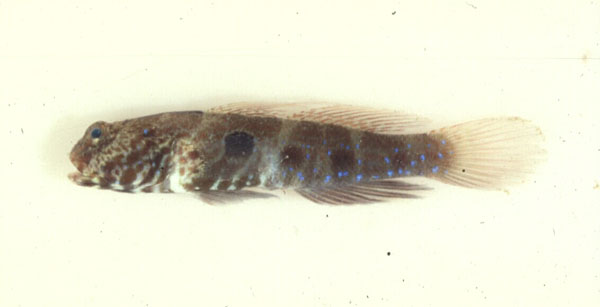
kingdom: Animalia
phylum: Chordata
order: Perciformes
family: Gobiidae
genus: Cryptocentrus
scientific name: Cryptocentrus strigilliceps
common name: Side-spot shrimp-goby
